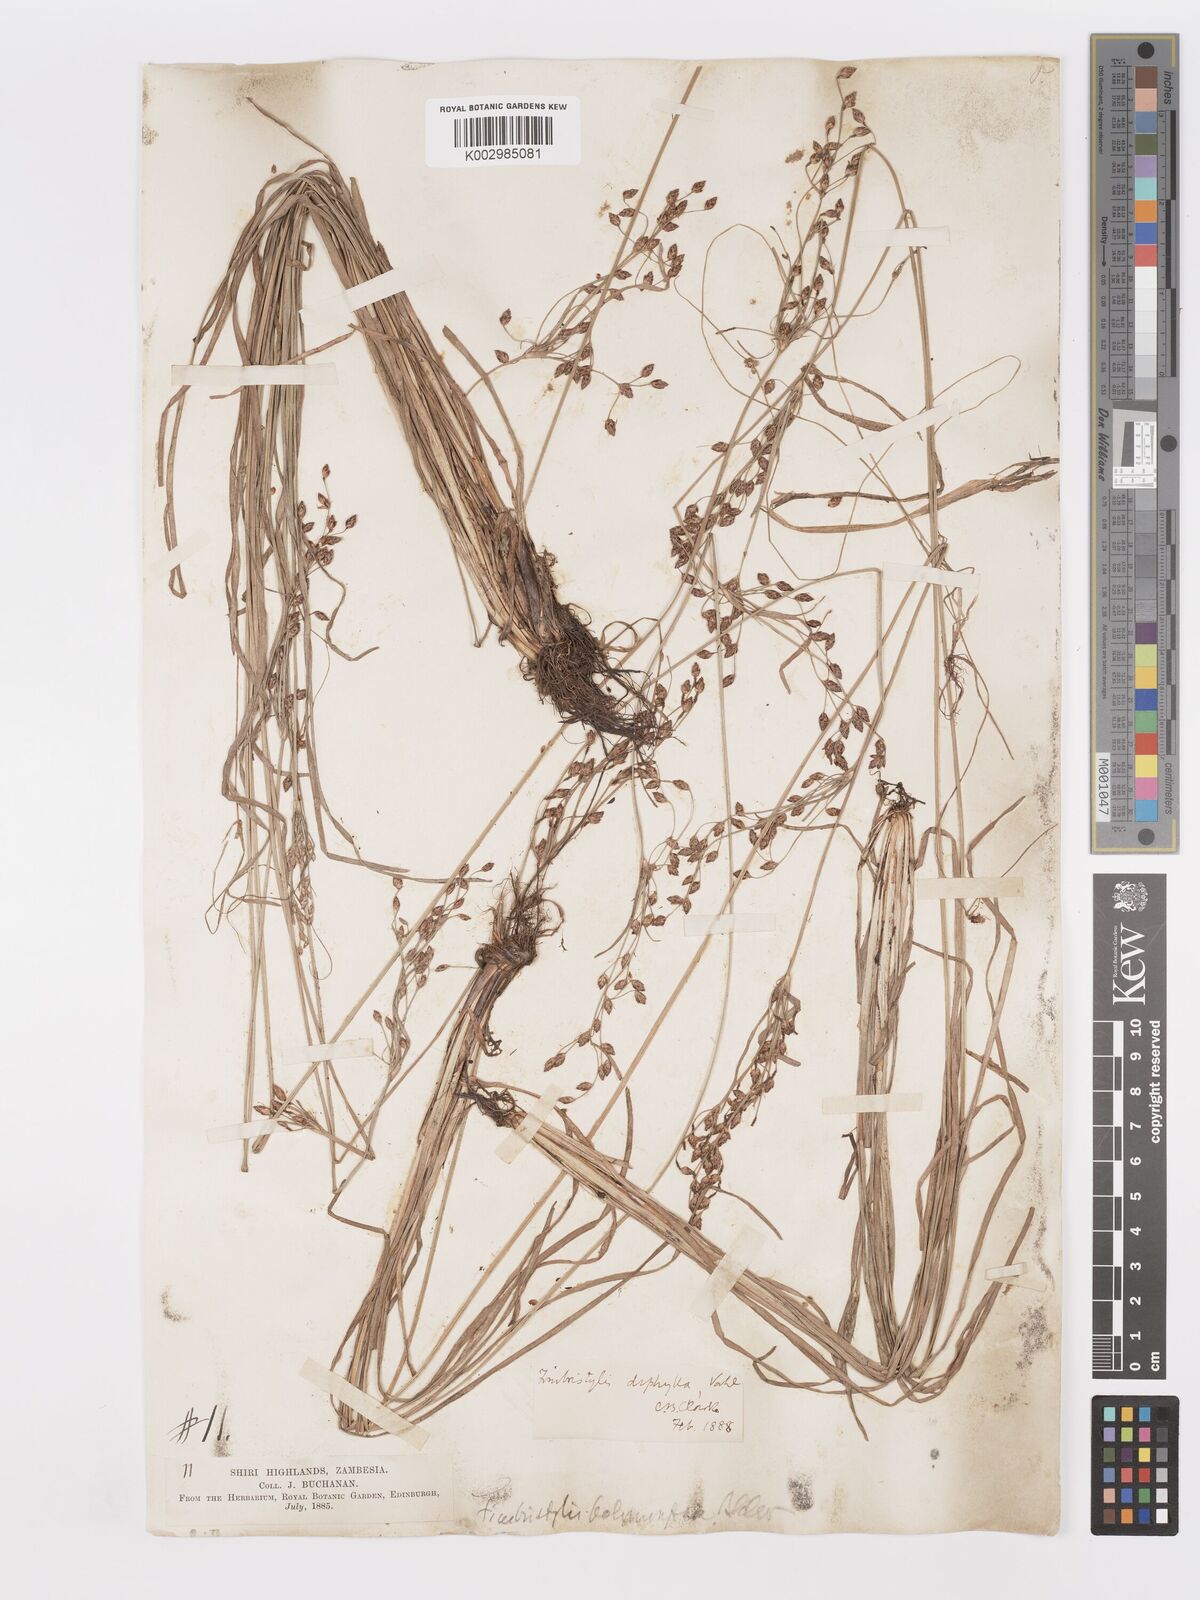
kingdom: Plantae
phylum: Tracheophyta
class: Liliopsida
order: Poales
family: Cyperaceae
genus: Fimbristylis
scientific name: Fimbristylis dichotoma
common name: Forked fimbry
